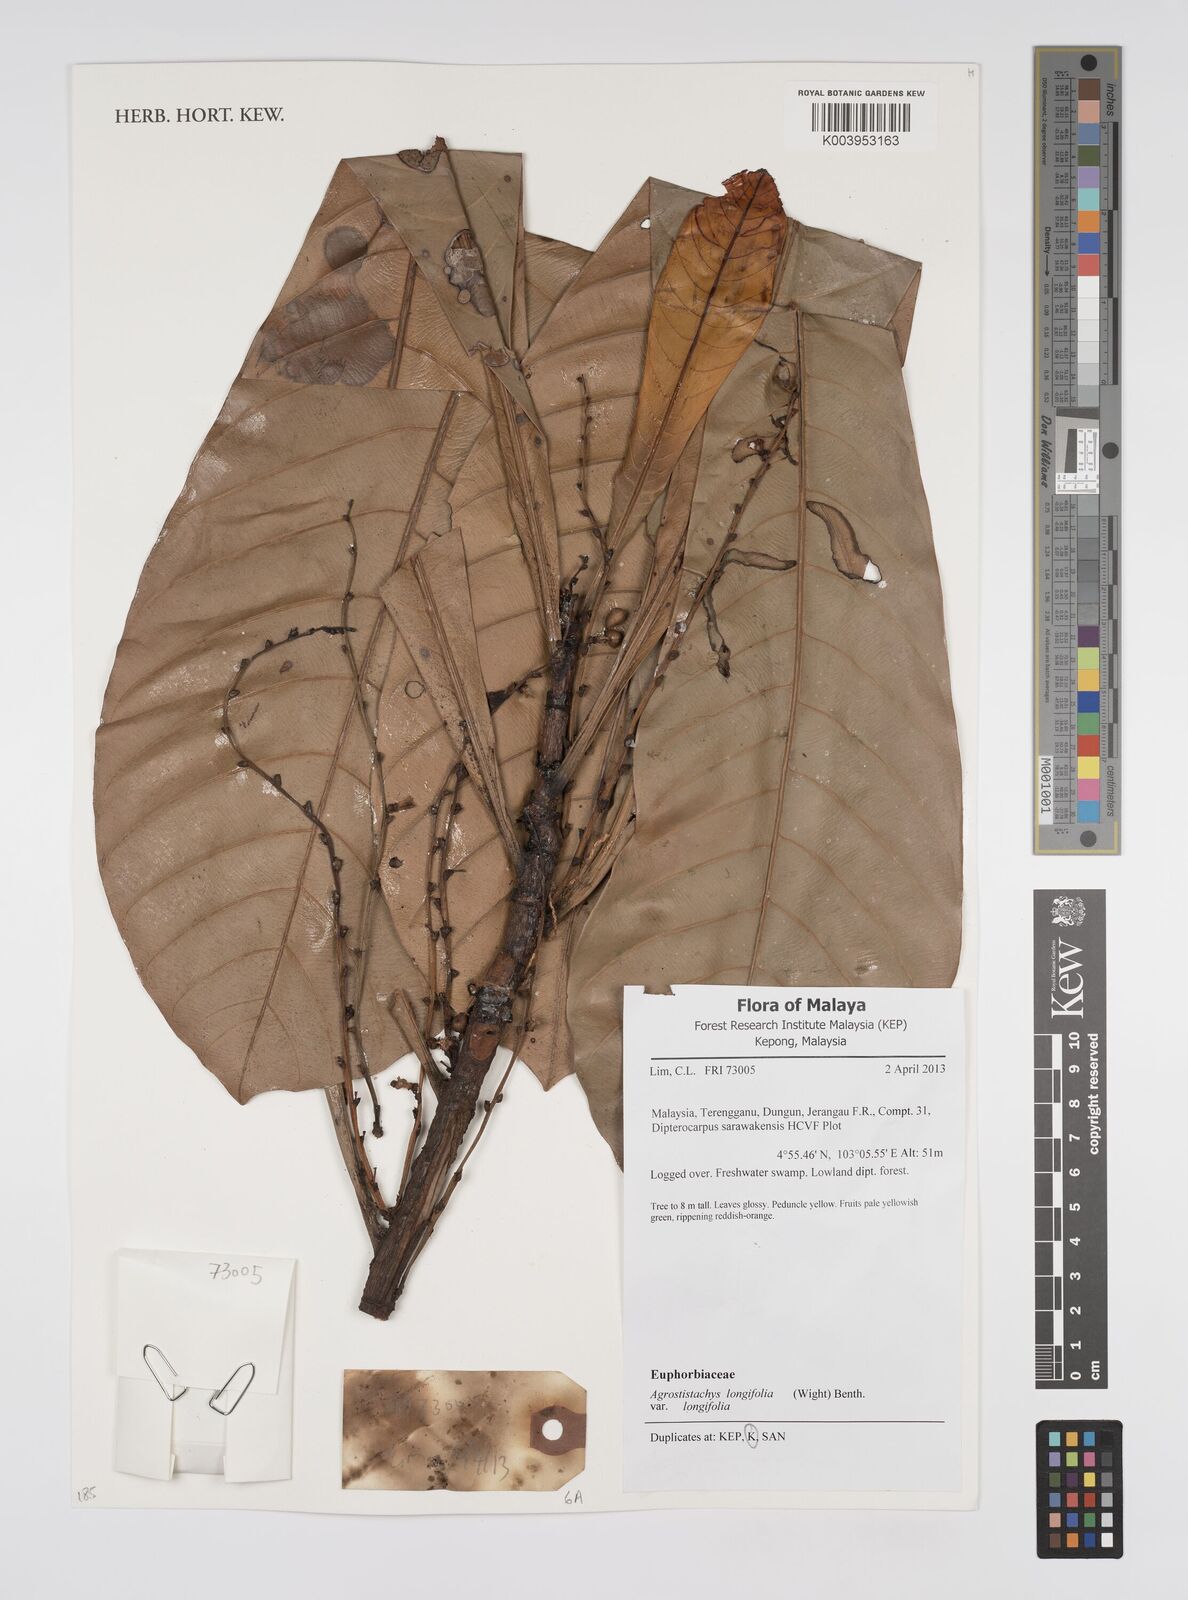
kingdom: Plantae
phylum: Tracheophyta
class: Magnoliopsida
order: Malpighiales
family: Euphorbiaceae
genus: Agrostistachys
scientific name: Agrostistachys borneensis
